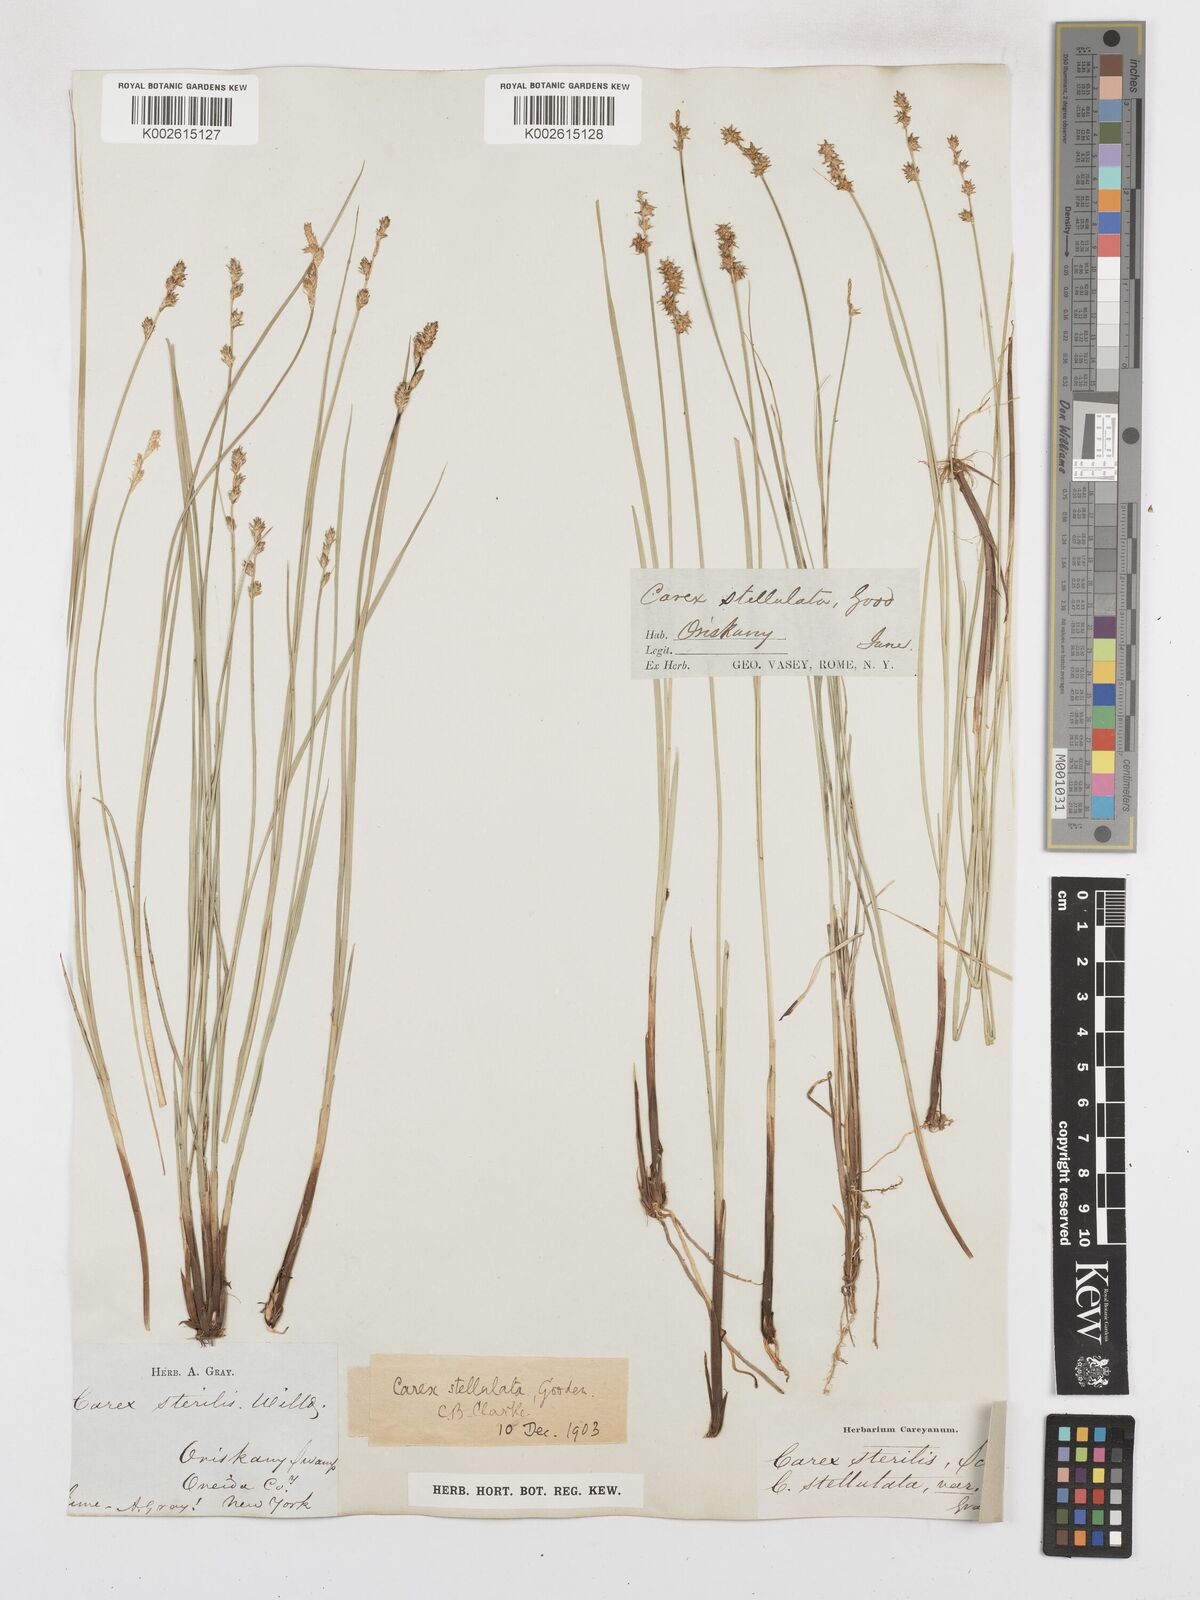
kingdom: Plantae
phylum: Tracheophyta
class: Liliopsida
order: Poales
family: Cyperaceae
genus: Carex
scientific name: Carex echinata
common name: Star sedge
